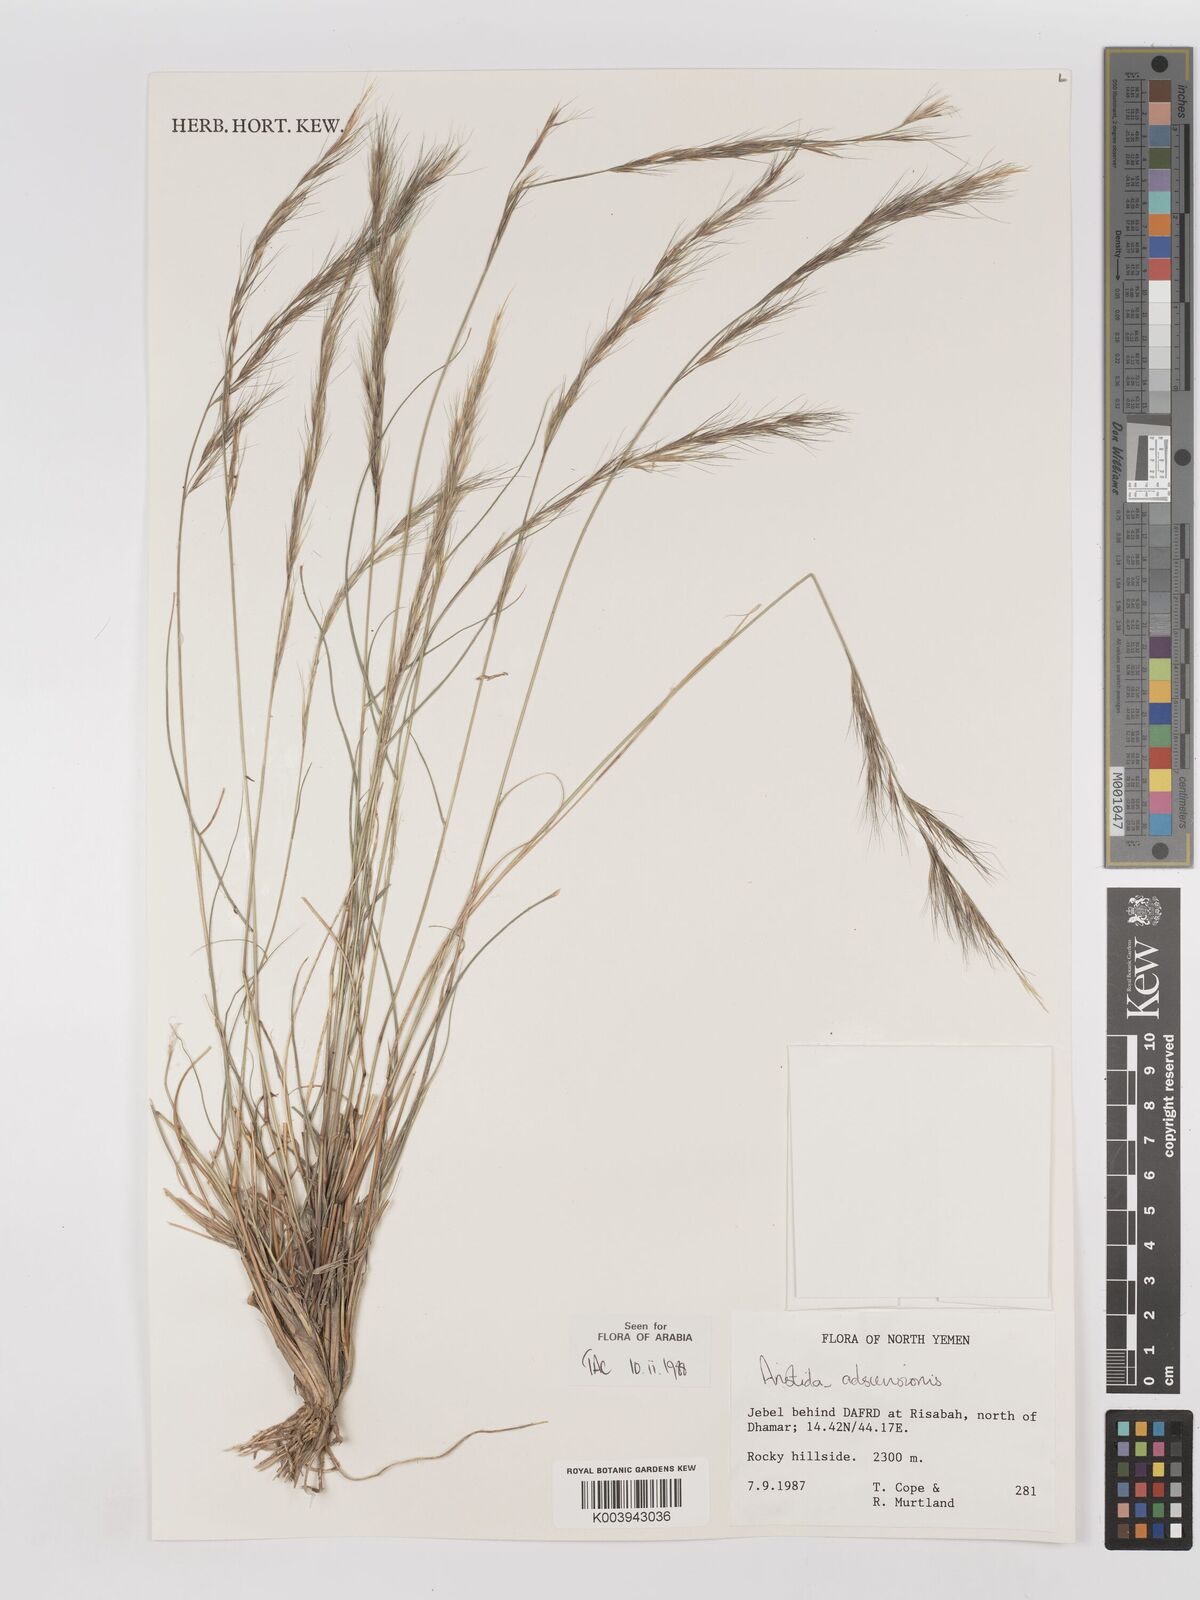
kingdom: Plantae
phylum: Tracheophyta
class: Liliopsida
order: Poales
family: Poaceae
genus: Aristida
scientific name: Aristida adscensionis
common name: Sixweeks threeawn
